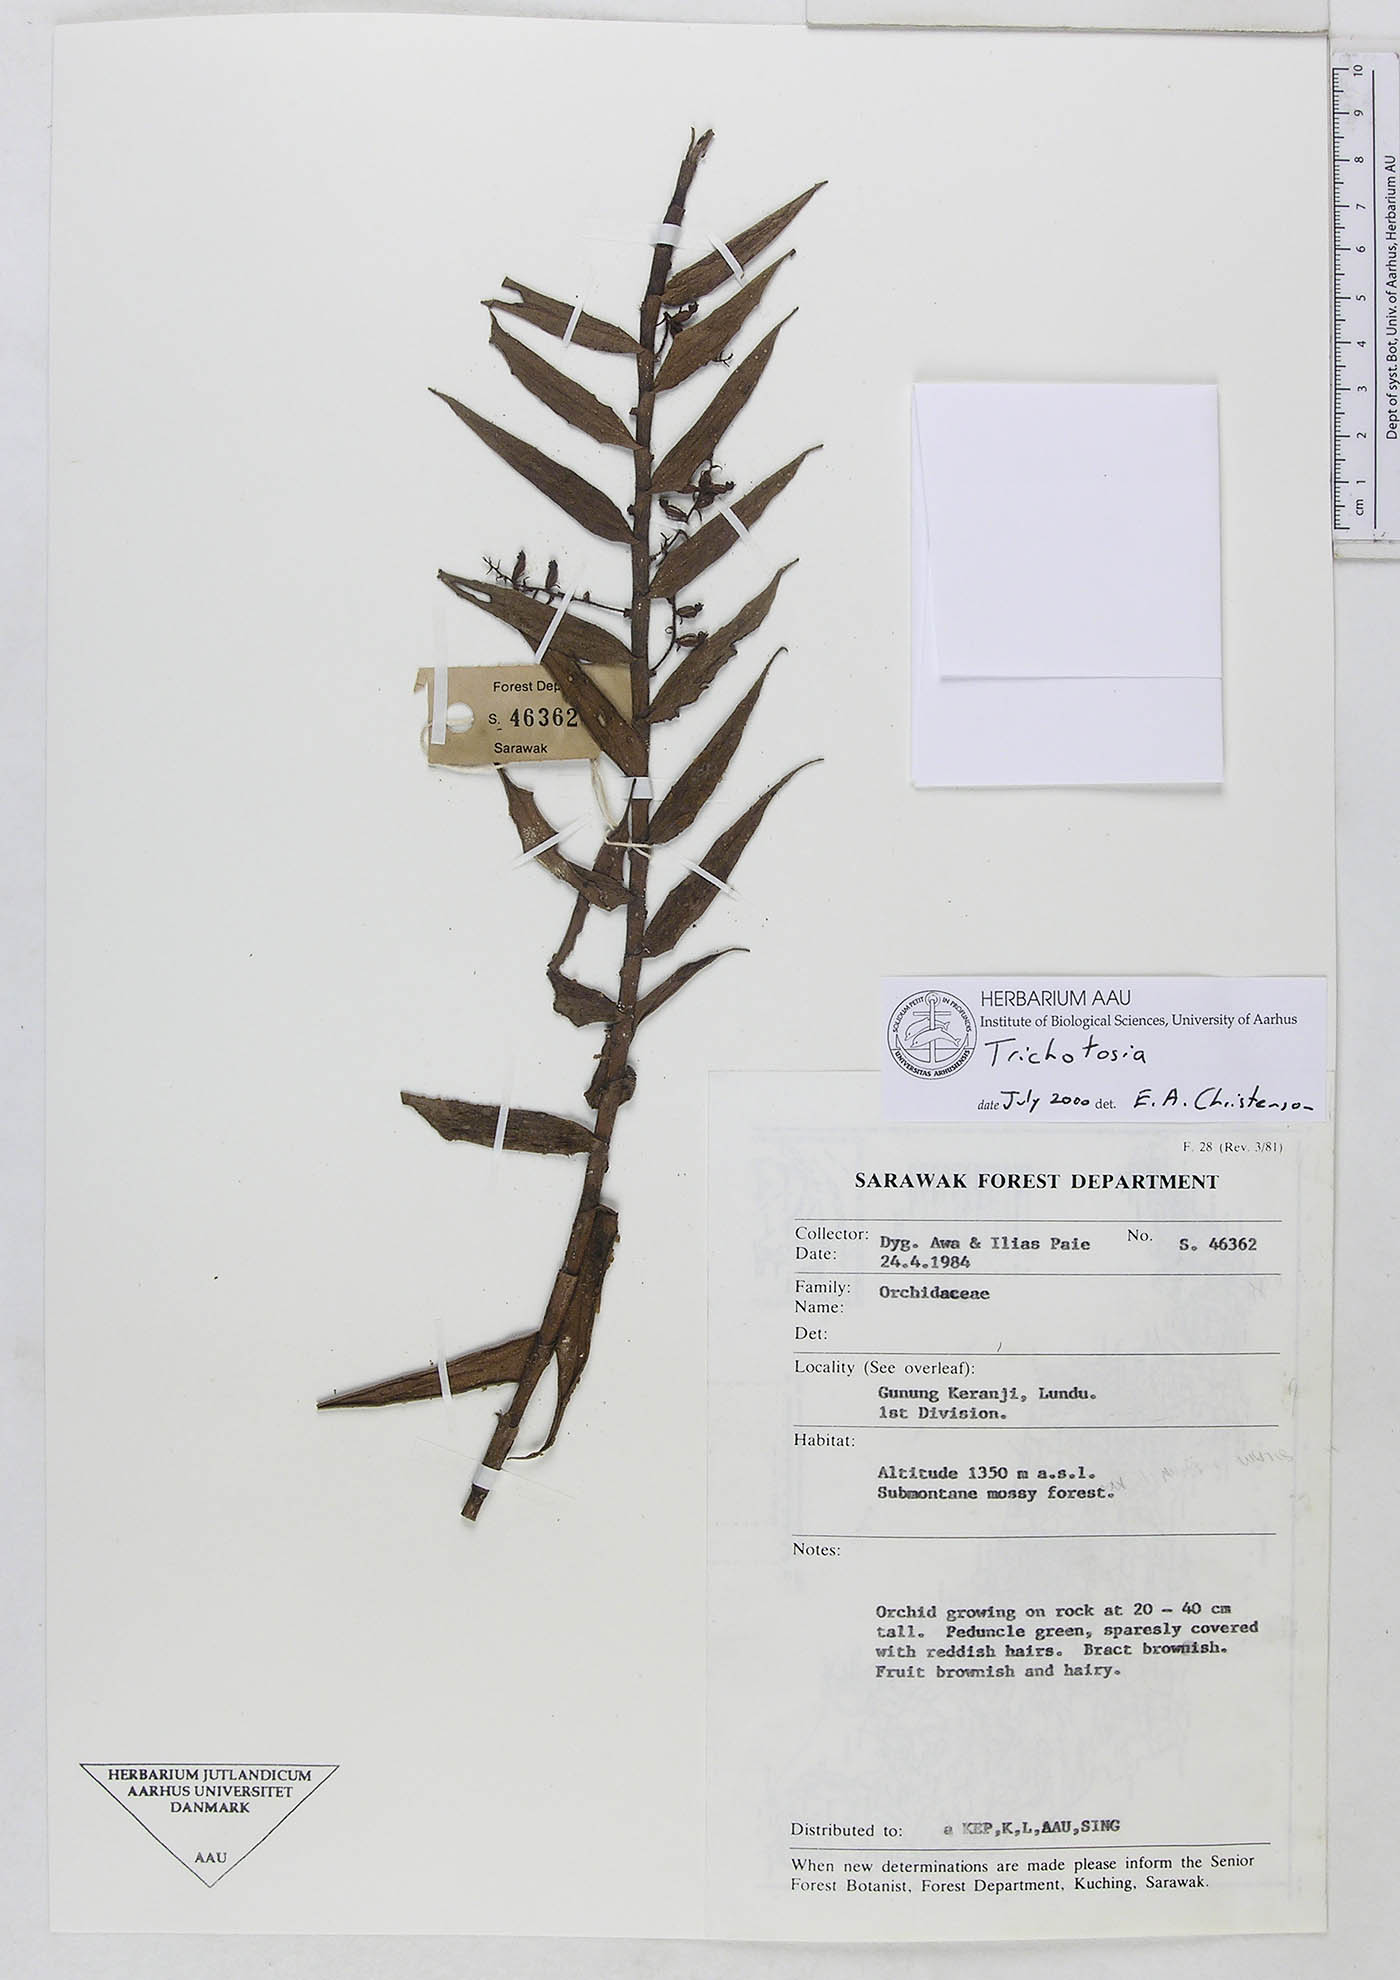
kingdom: Plantae
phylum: Tracheophyta
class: Liliopsida
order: Asparagales
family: Orchidaceae
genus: Trichotosia
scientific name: Trichotosia
